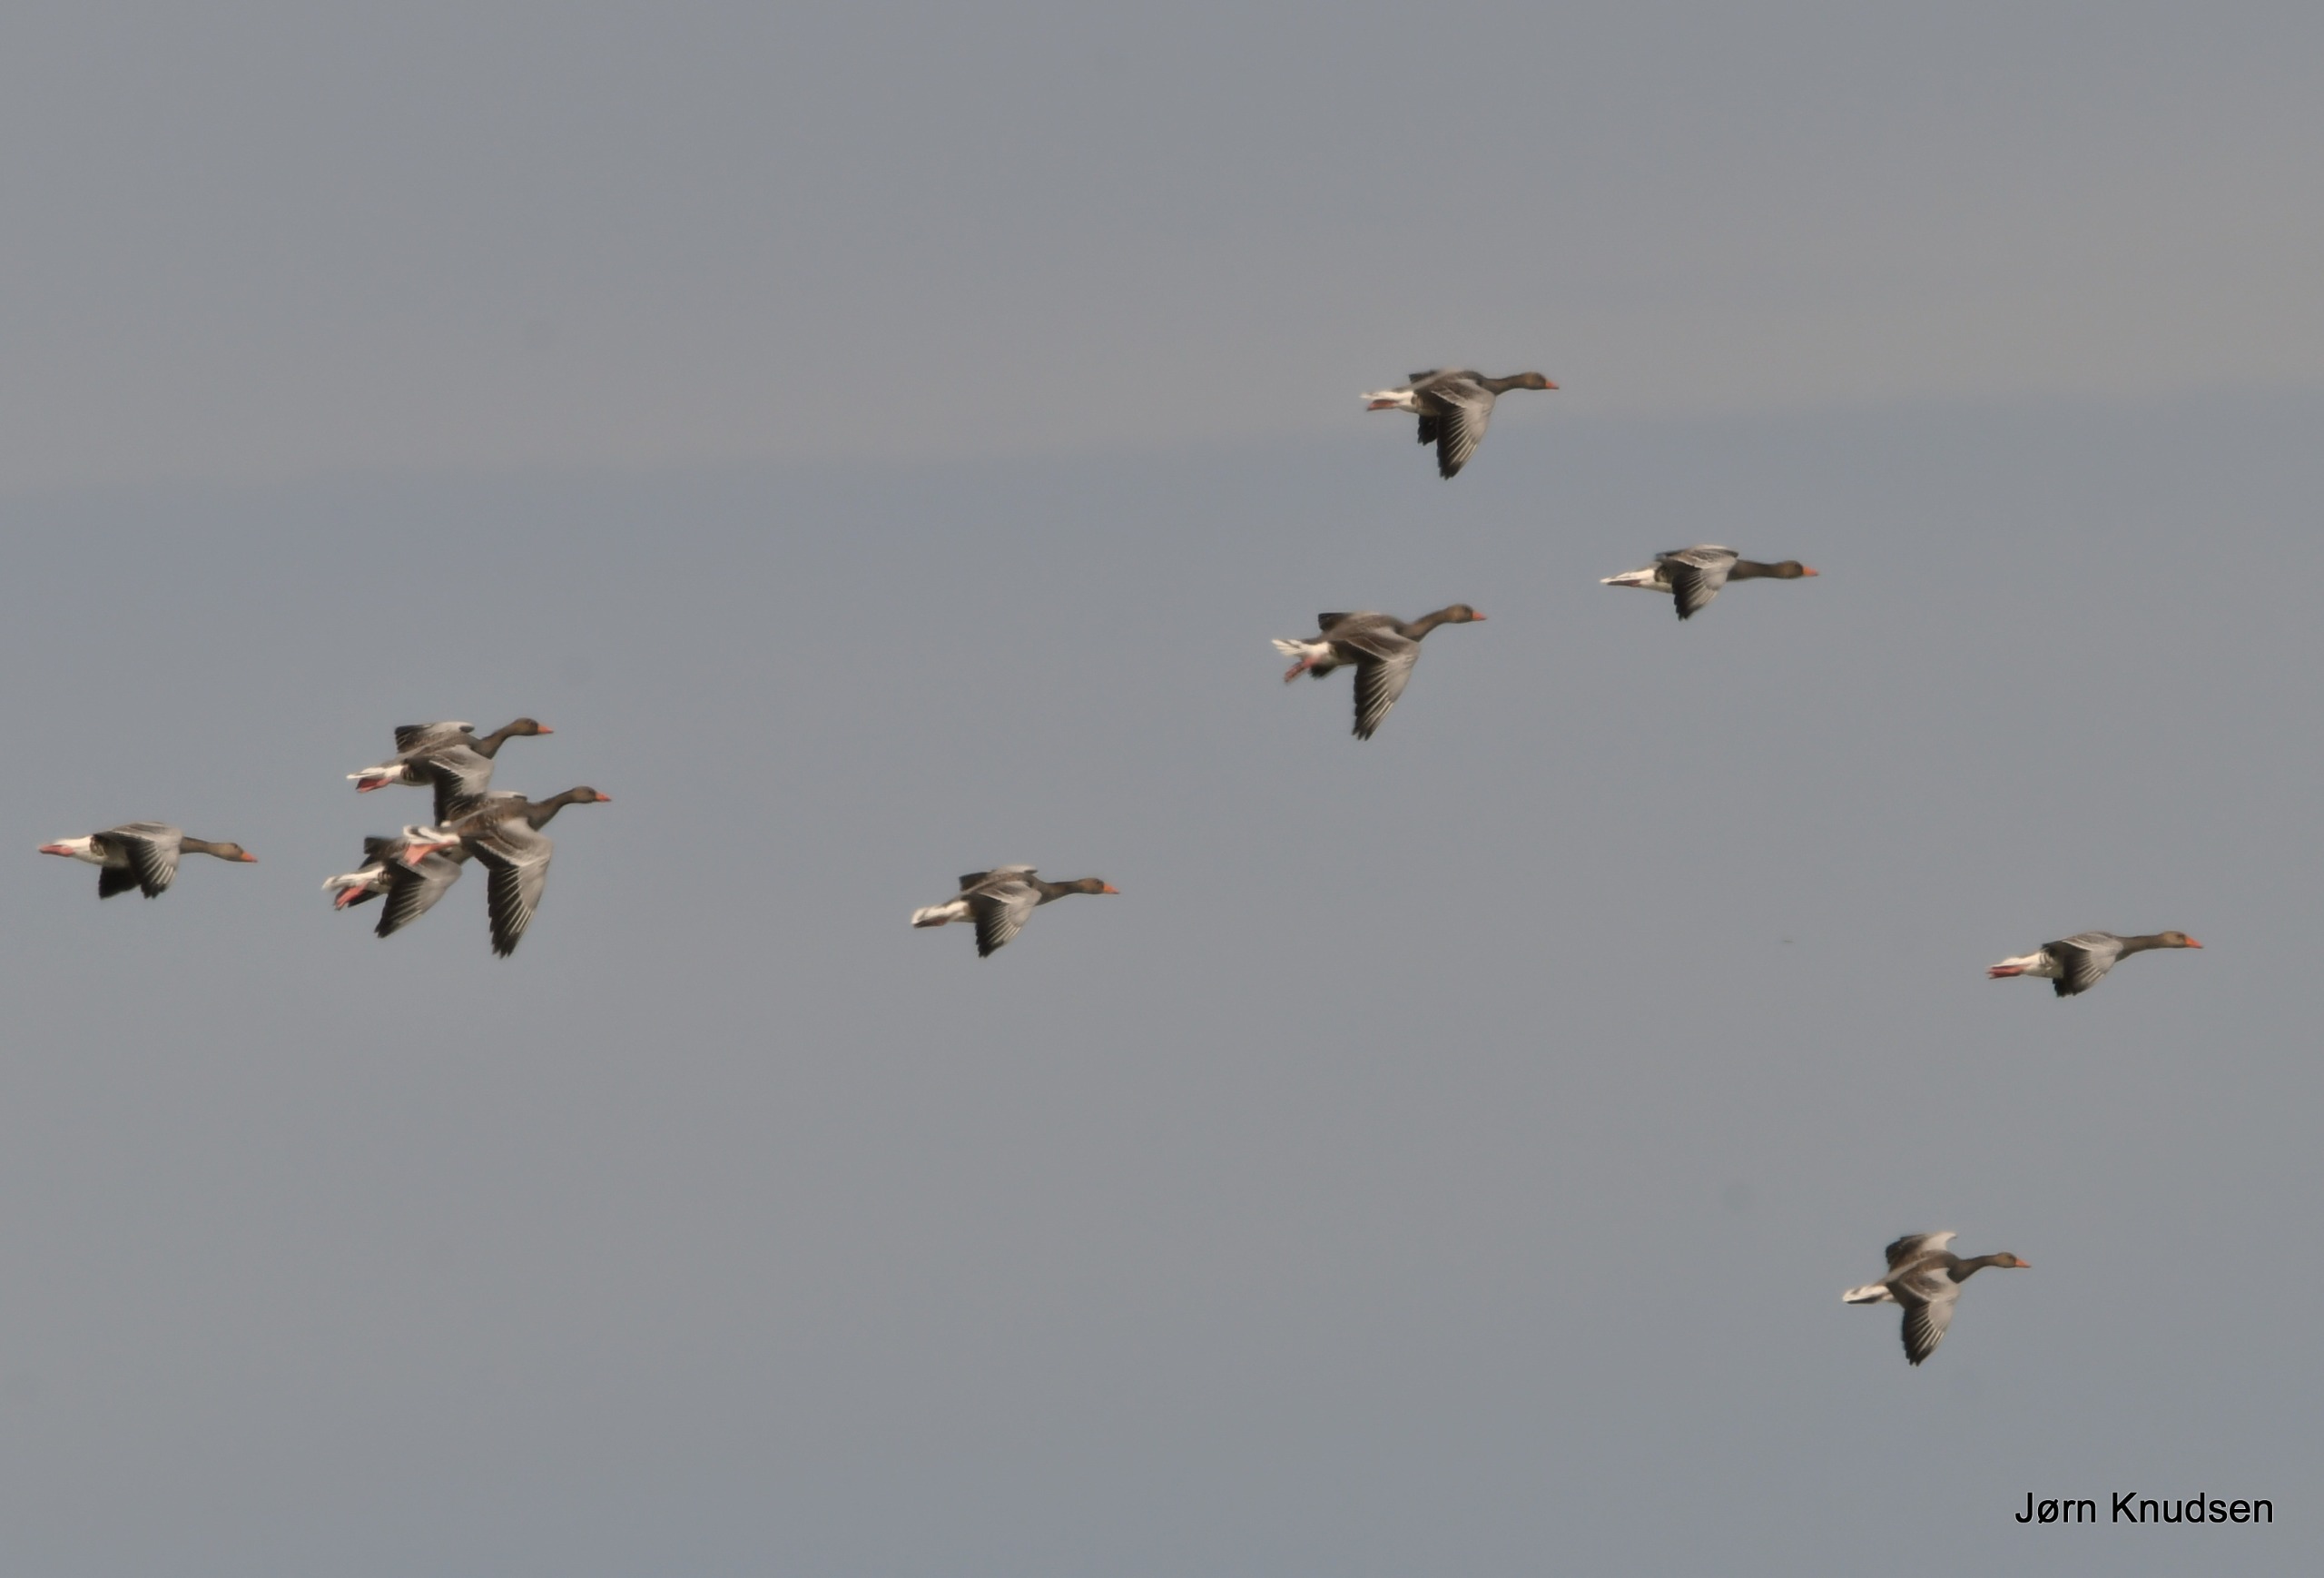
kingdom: Animalia
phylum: Chordata
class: Aves
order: Anseriformes
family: Anatidae
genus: Anser
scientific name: Anser anser
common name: Grågås
